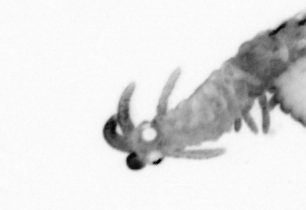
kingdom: Animalia
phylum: Annelida
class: Polychaeta
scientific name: Polychaeta
